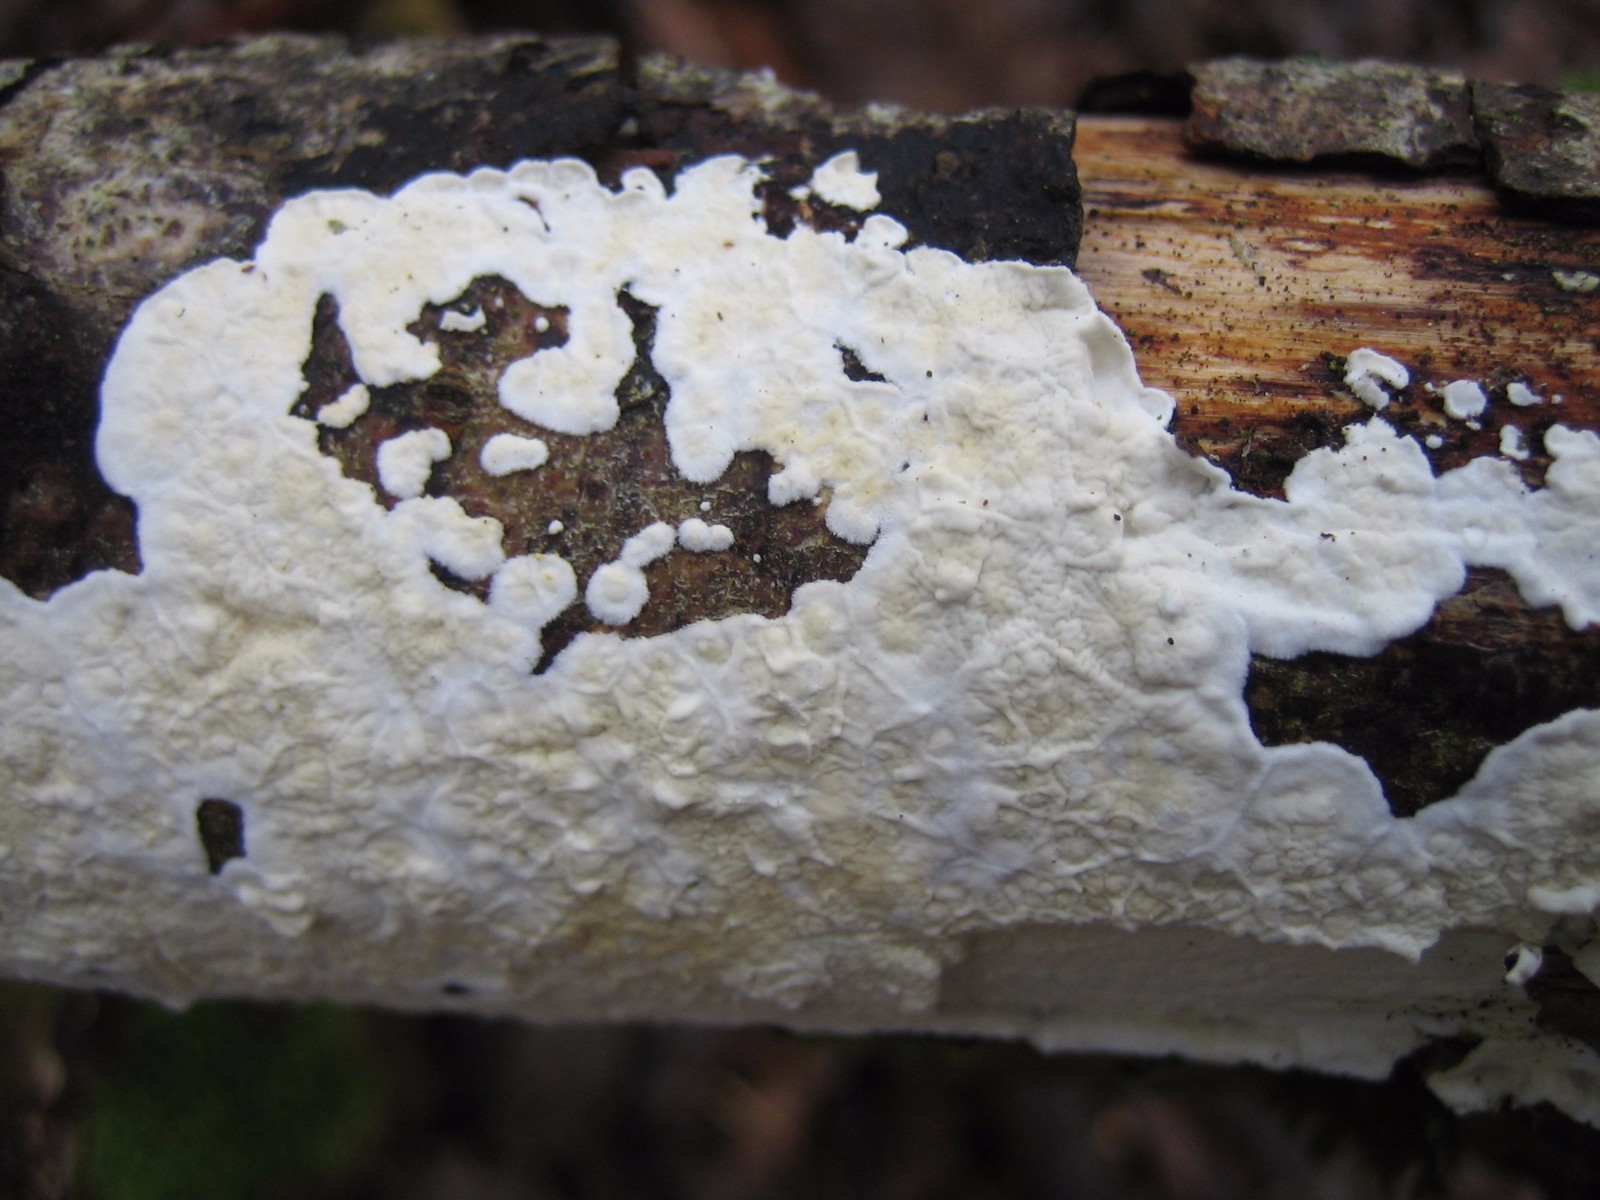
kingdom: Fungi
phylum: Basidiomycota
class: Agaricomycetes
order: Polyporales
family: Irpicaceae
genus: Byssomerulius
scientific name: Byssomerulius corium
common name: læder-åresvamp
